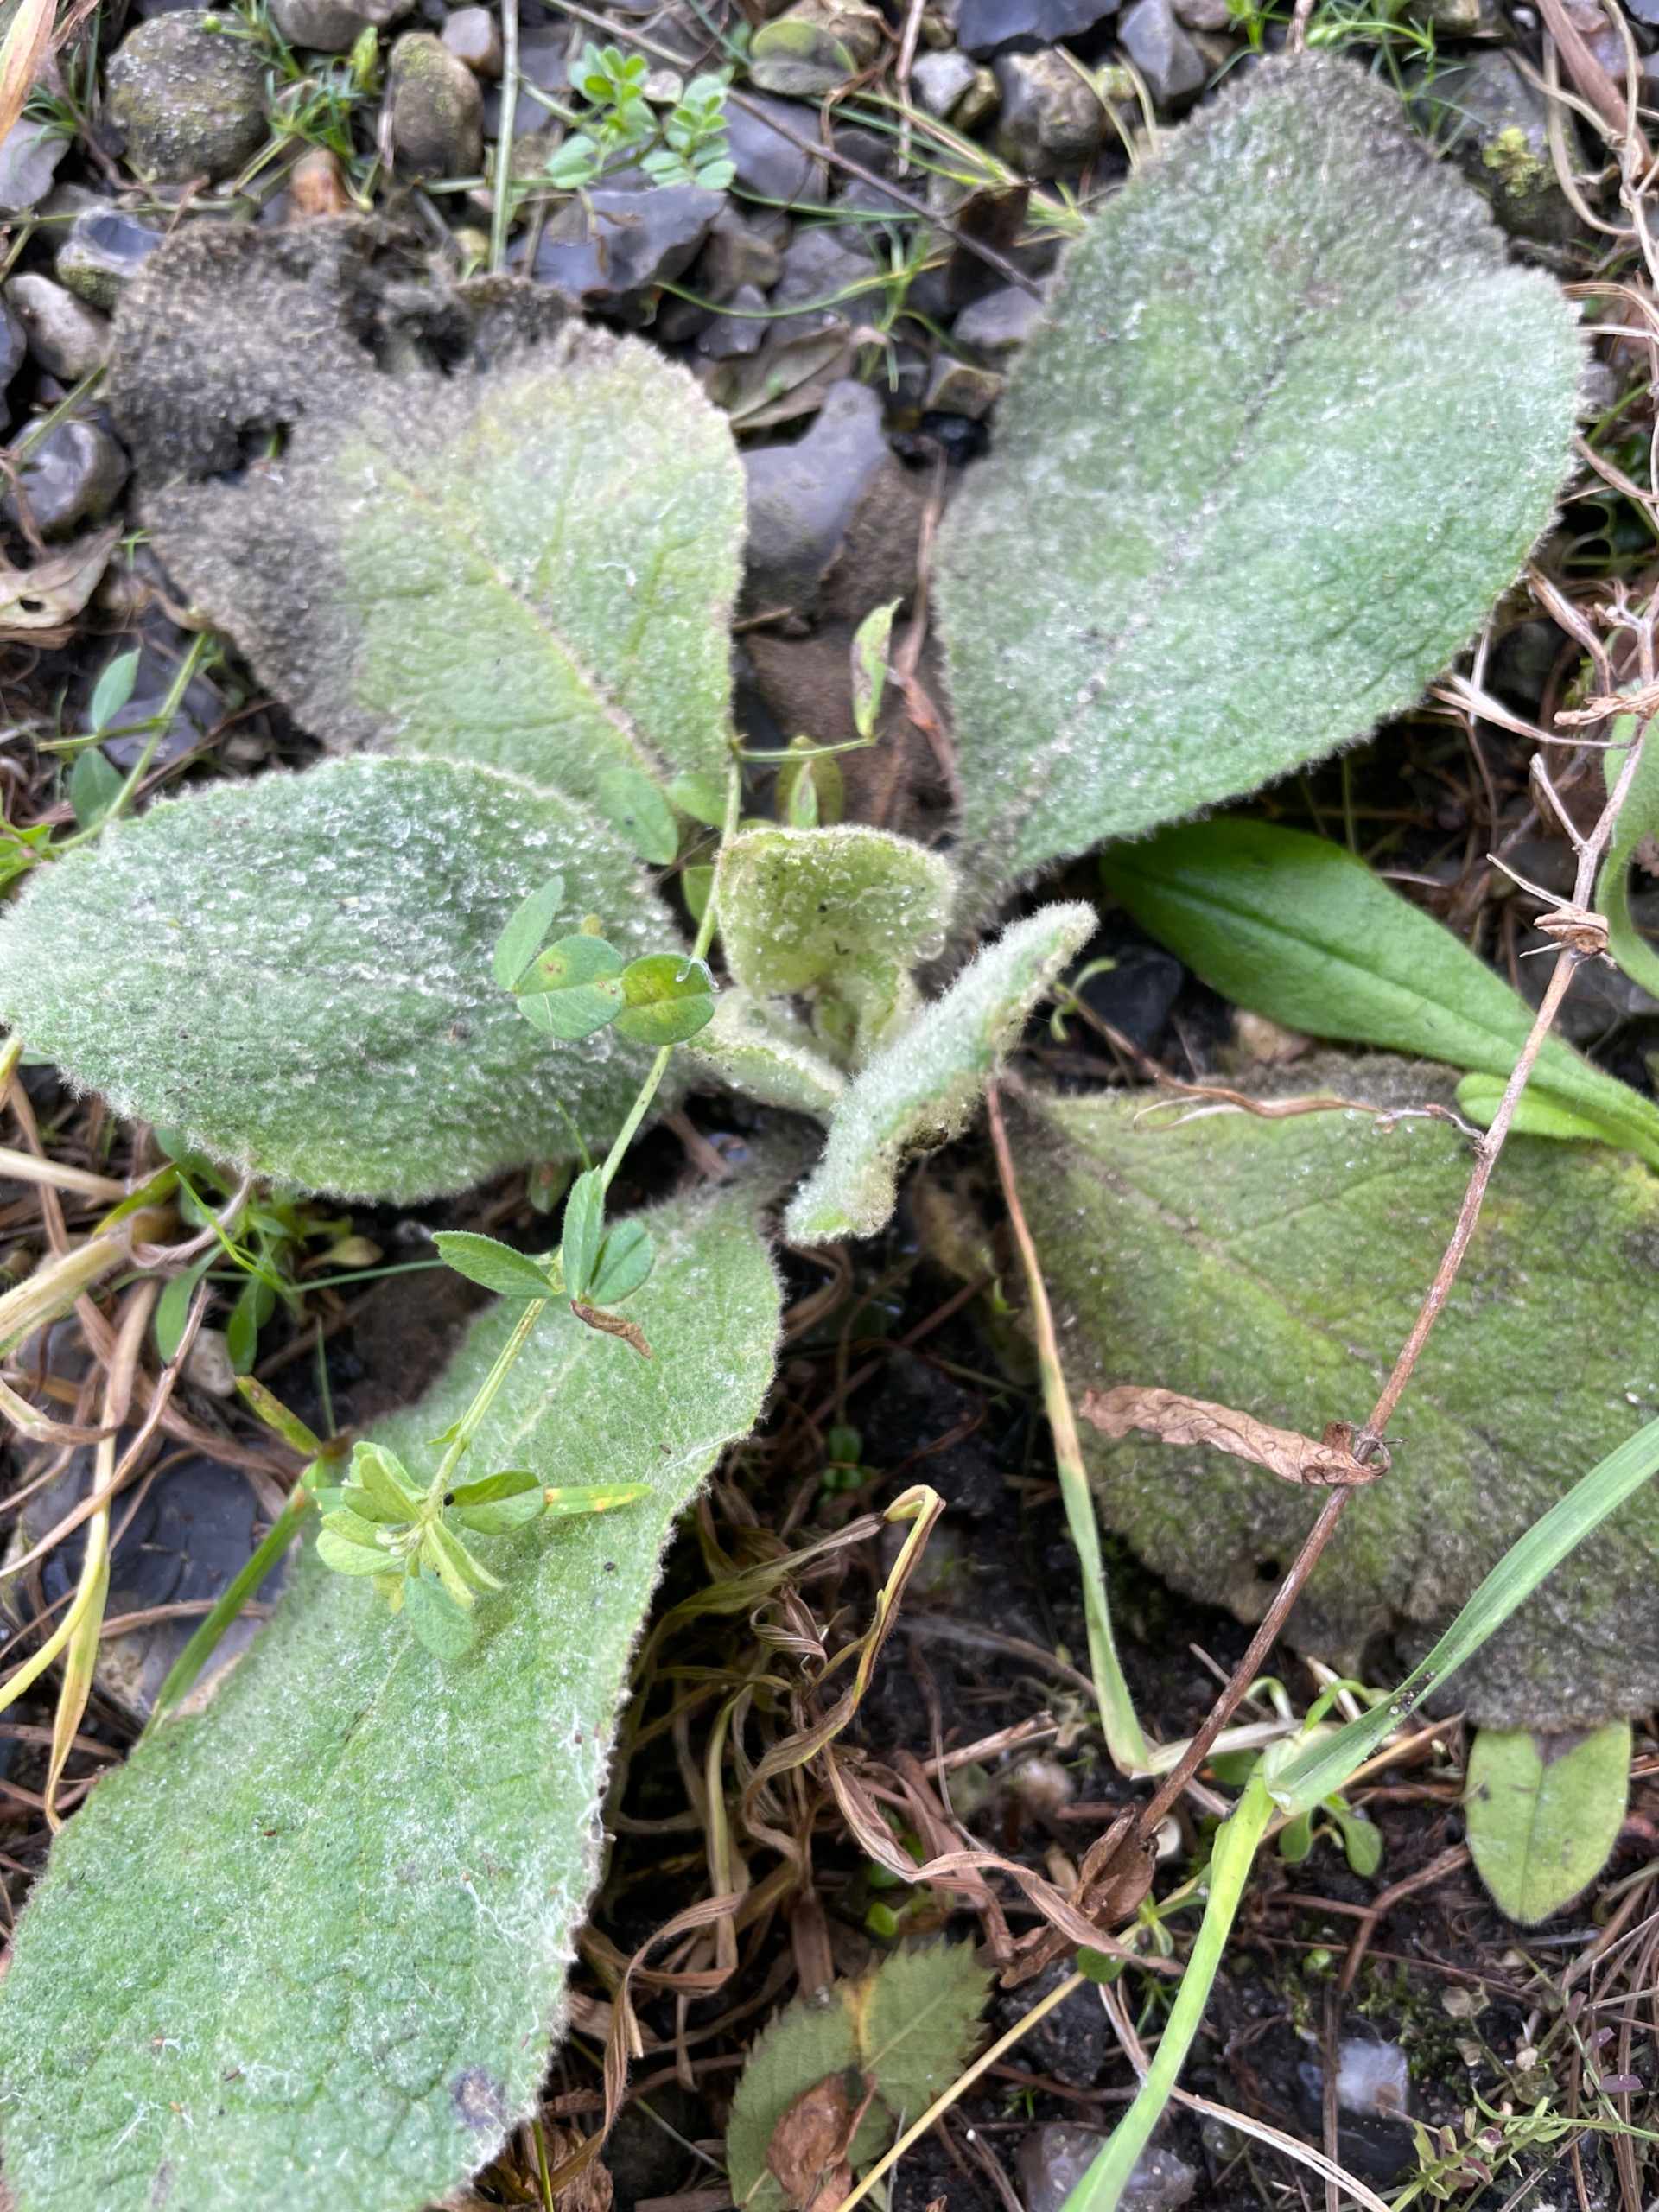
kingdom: Plantae
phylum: Tracheophyta
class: Magnoliopsida
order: Lamiales
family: Scrophulariaceae
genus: Verbascum
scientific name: Verbascum
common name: Kongelysslægten
